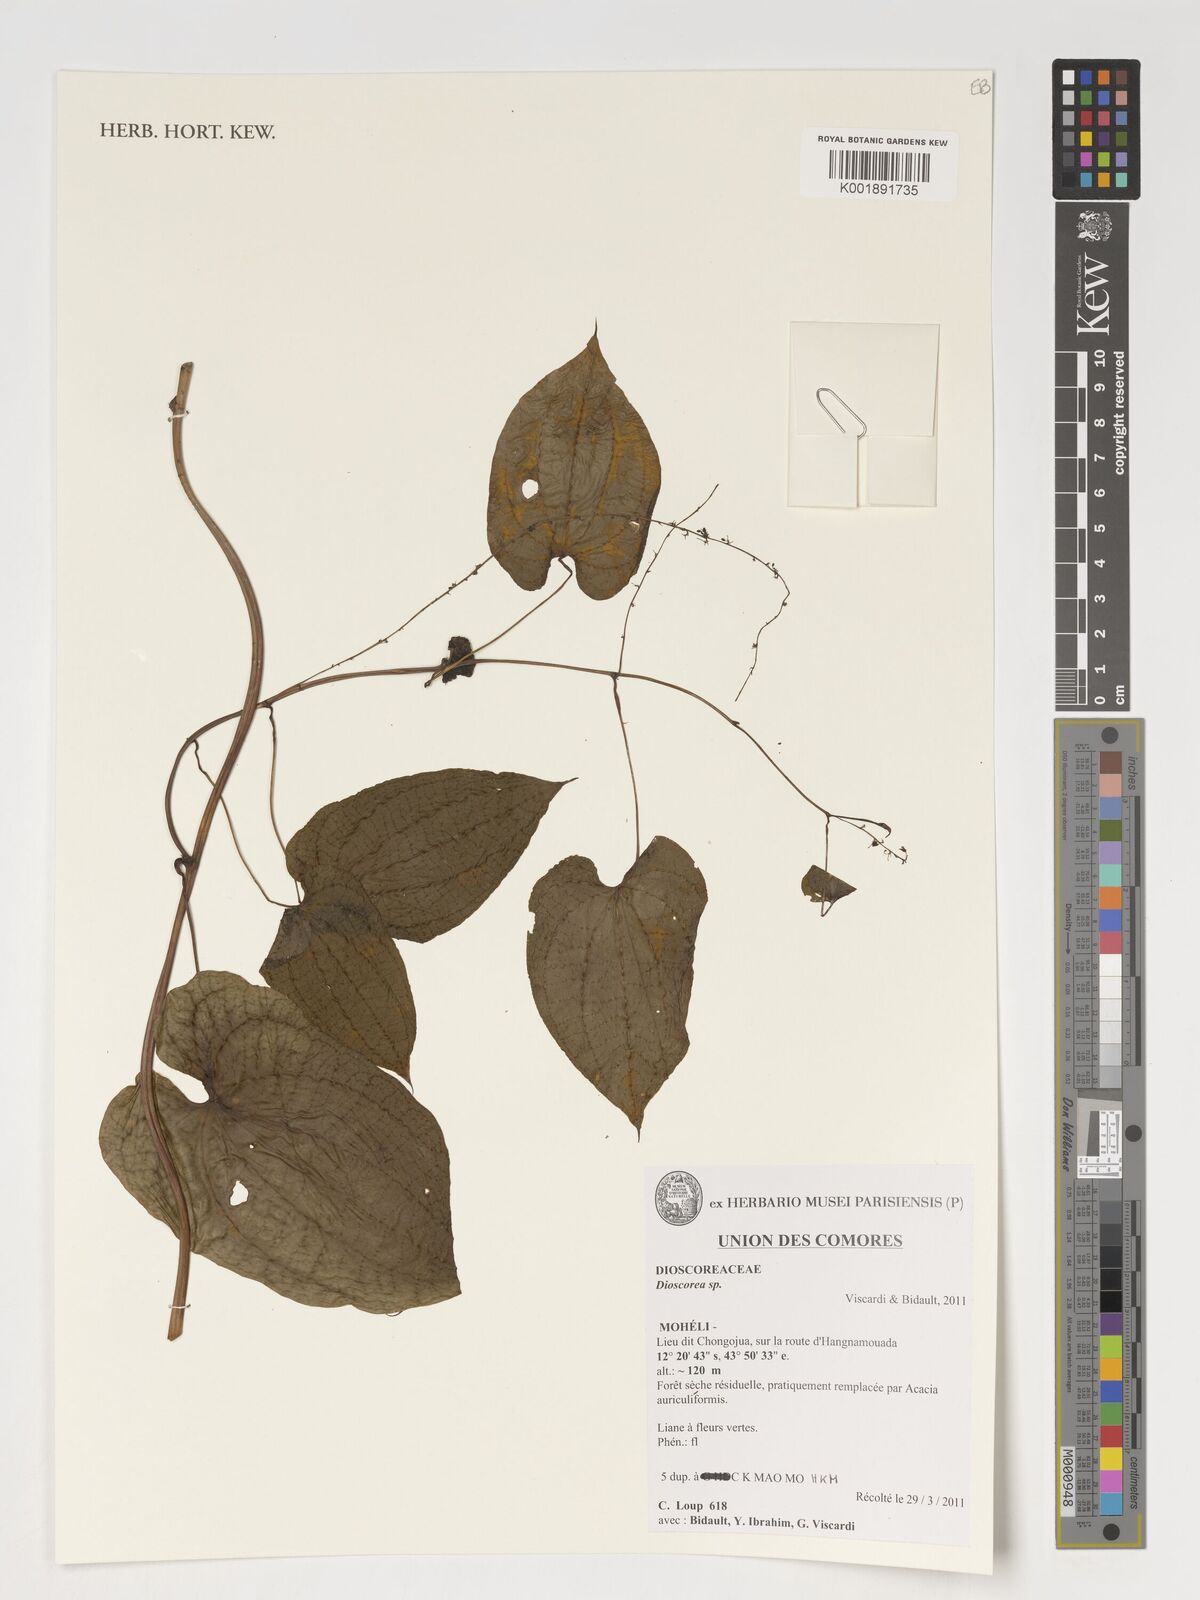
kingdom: Plantae
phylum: Tracheophyta
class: Liliopsida
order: Dioscoreales
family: Dioscoreaceae
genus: Dioscorea
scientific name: Dioscorea
